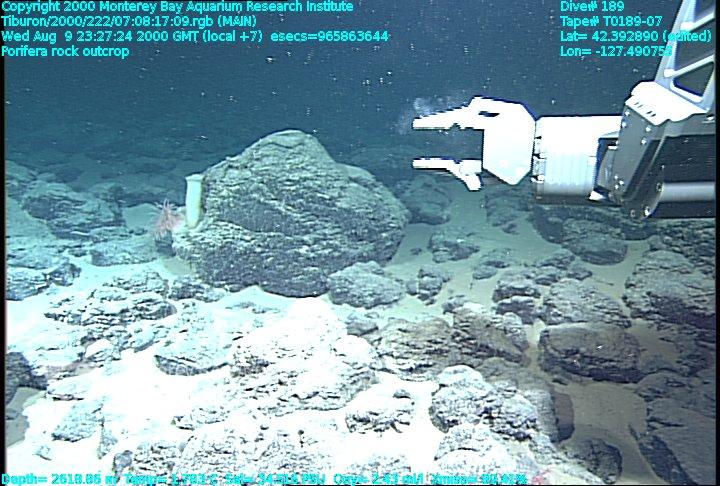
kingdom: Animalia
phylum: Porifera
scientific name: Porifera
